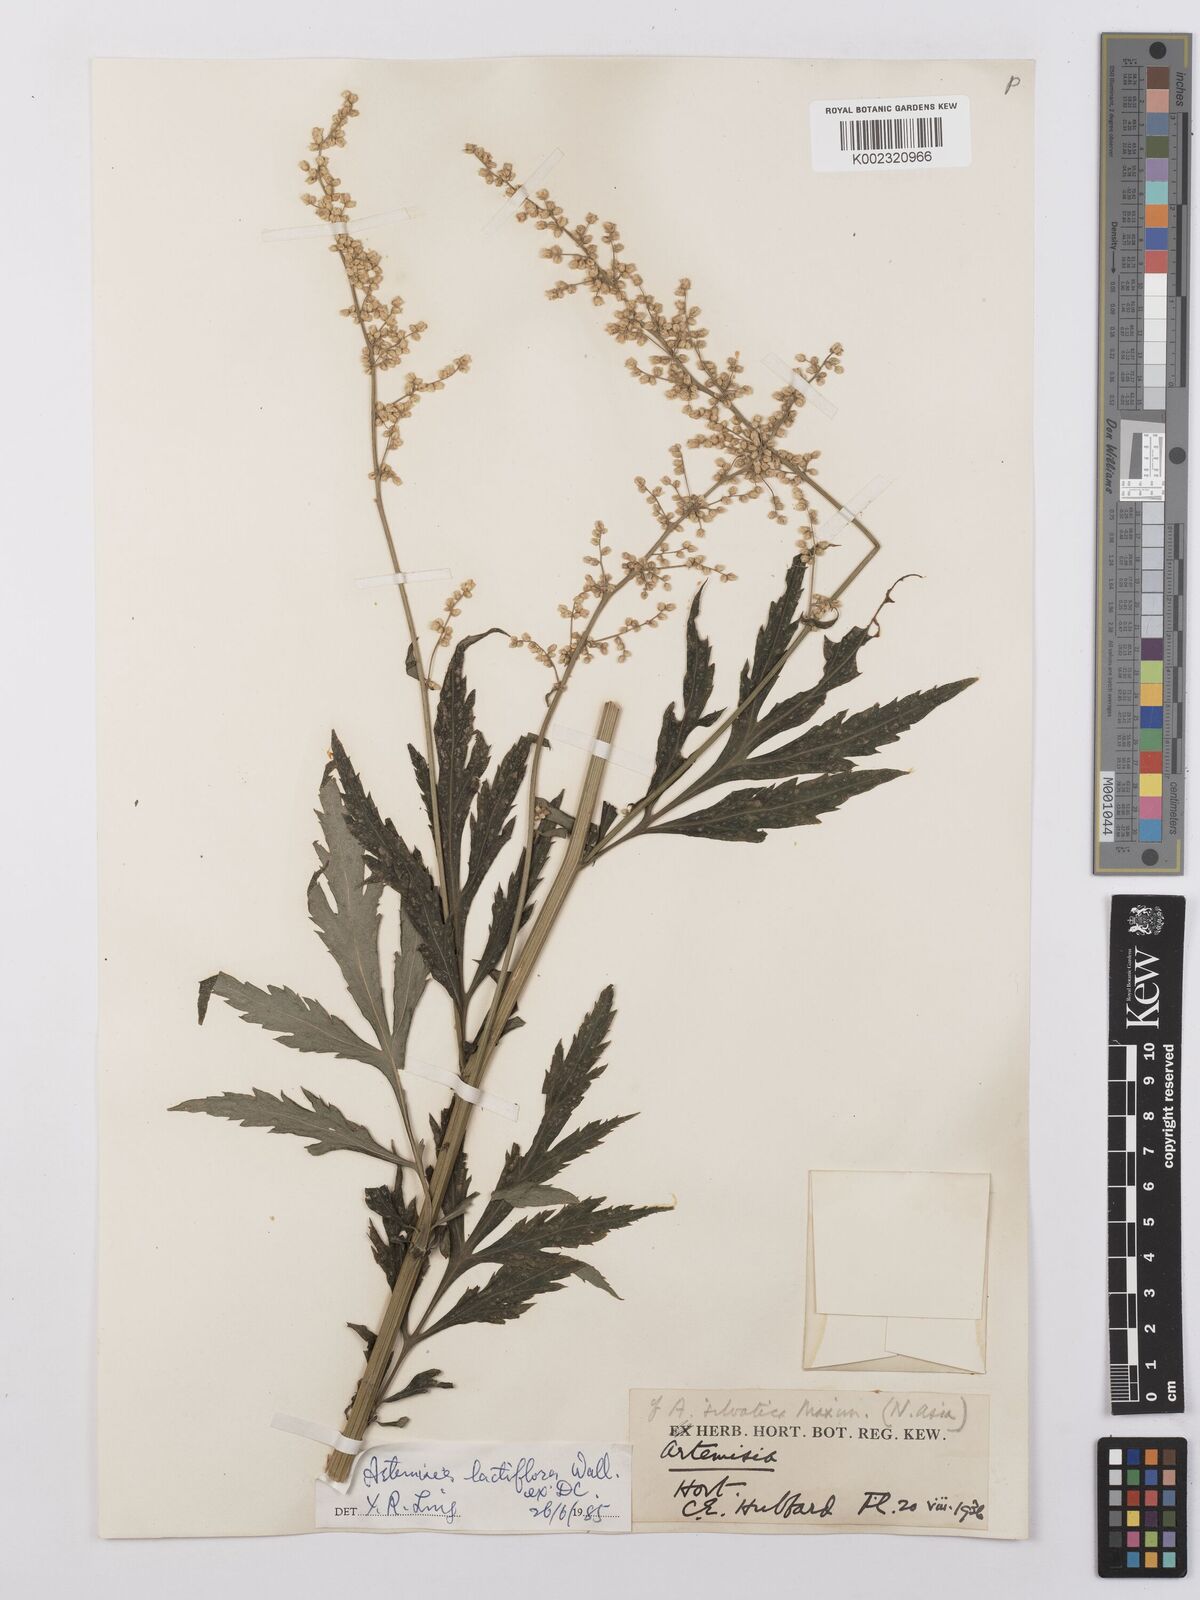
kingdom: Plantae
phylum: Tracheophyta
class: Magnoliopsida
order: Asterales
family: Asteraceae
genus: Artemisia
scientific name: Artemisia
